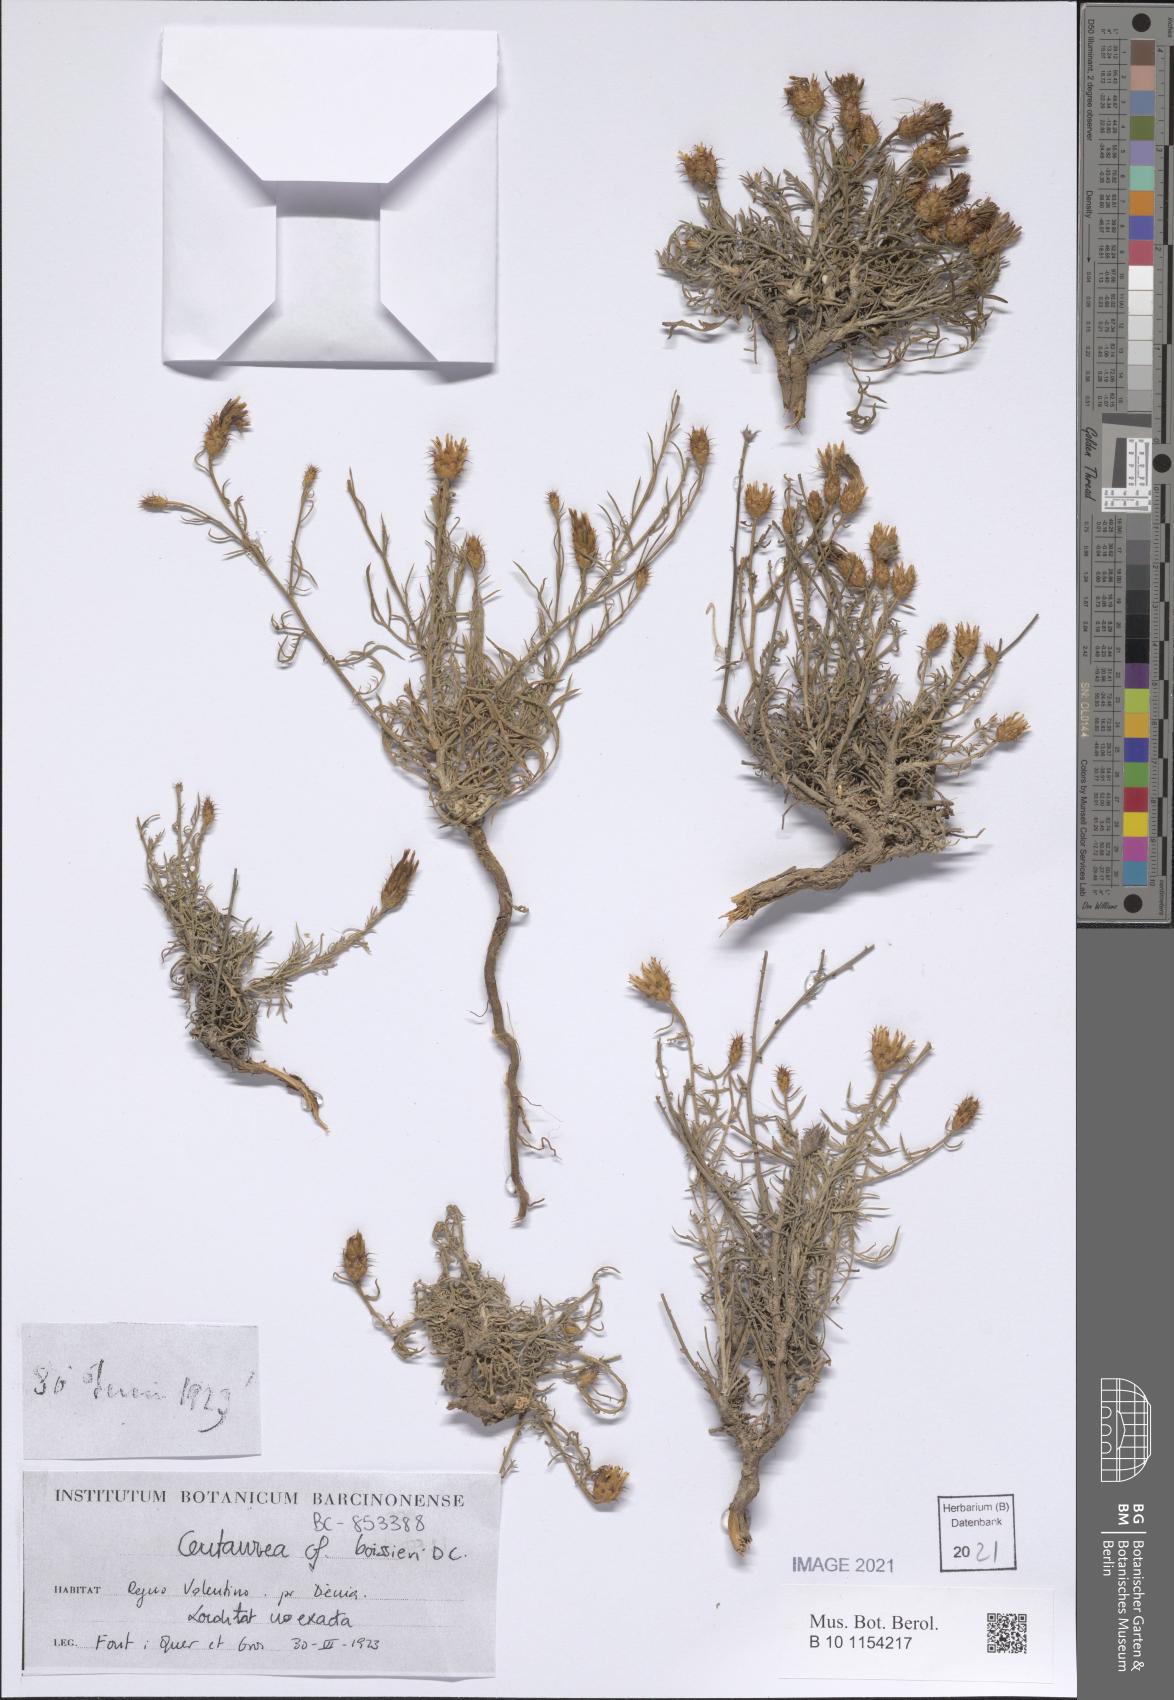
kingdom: Plantae
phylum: Tracheophyta
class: Magnoliopsida
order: Asterales
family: Asteraceae
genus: Centaurea
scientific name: Centaurea boissieri
